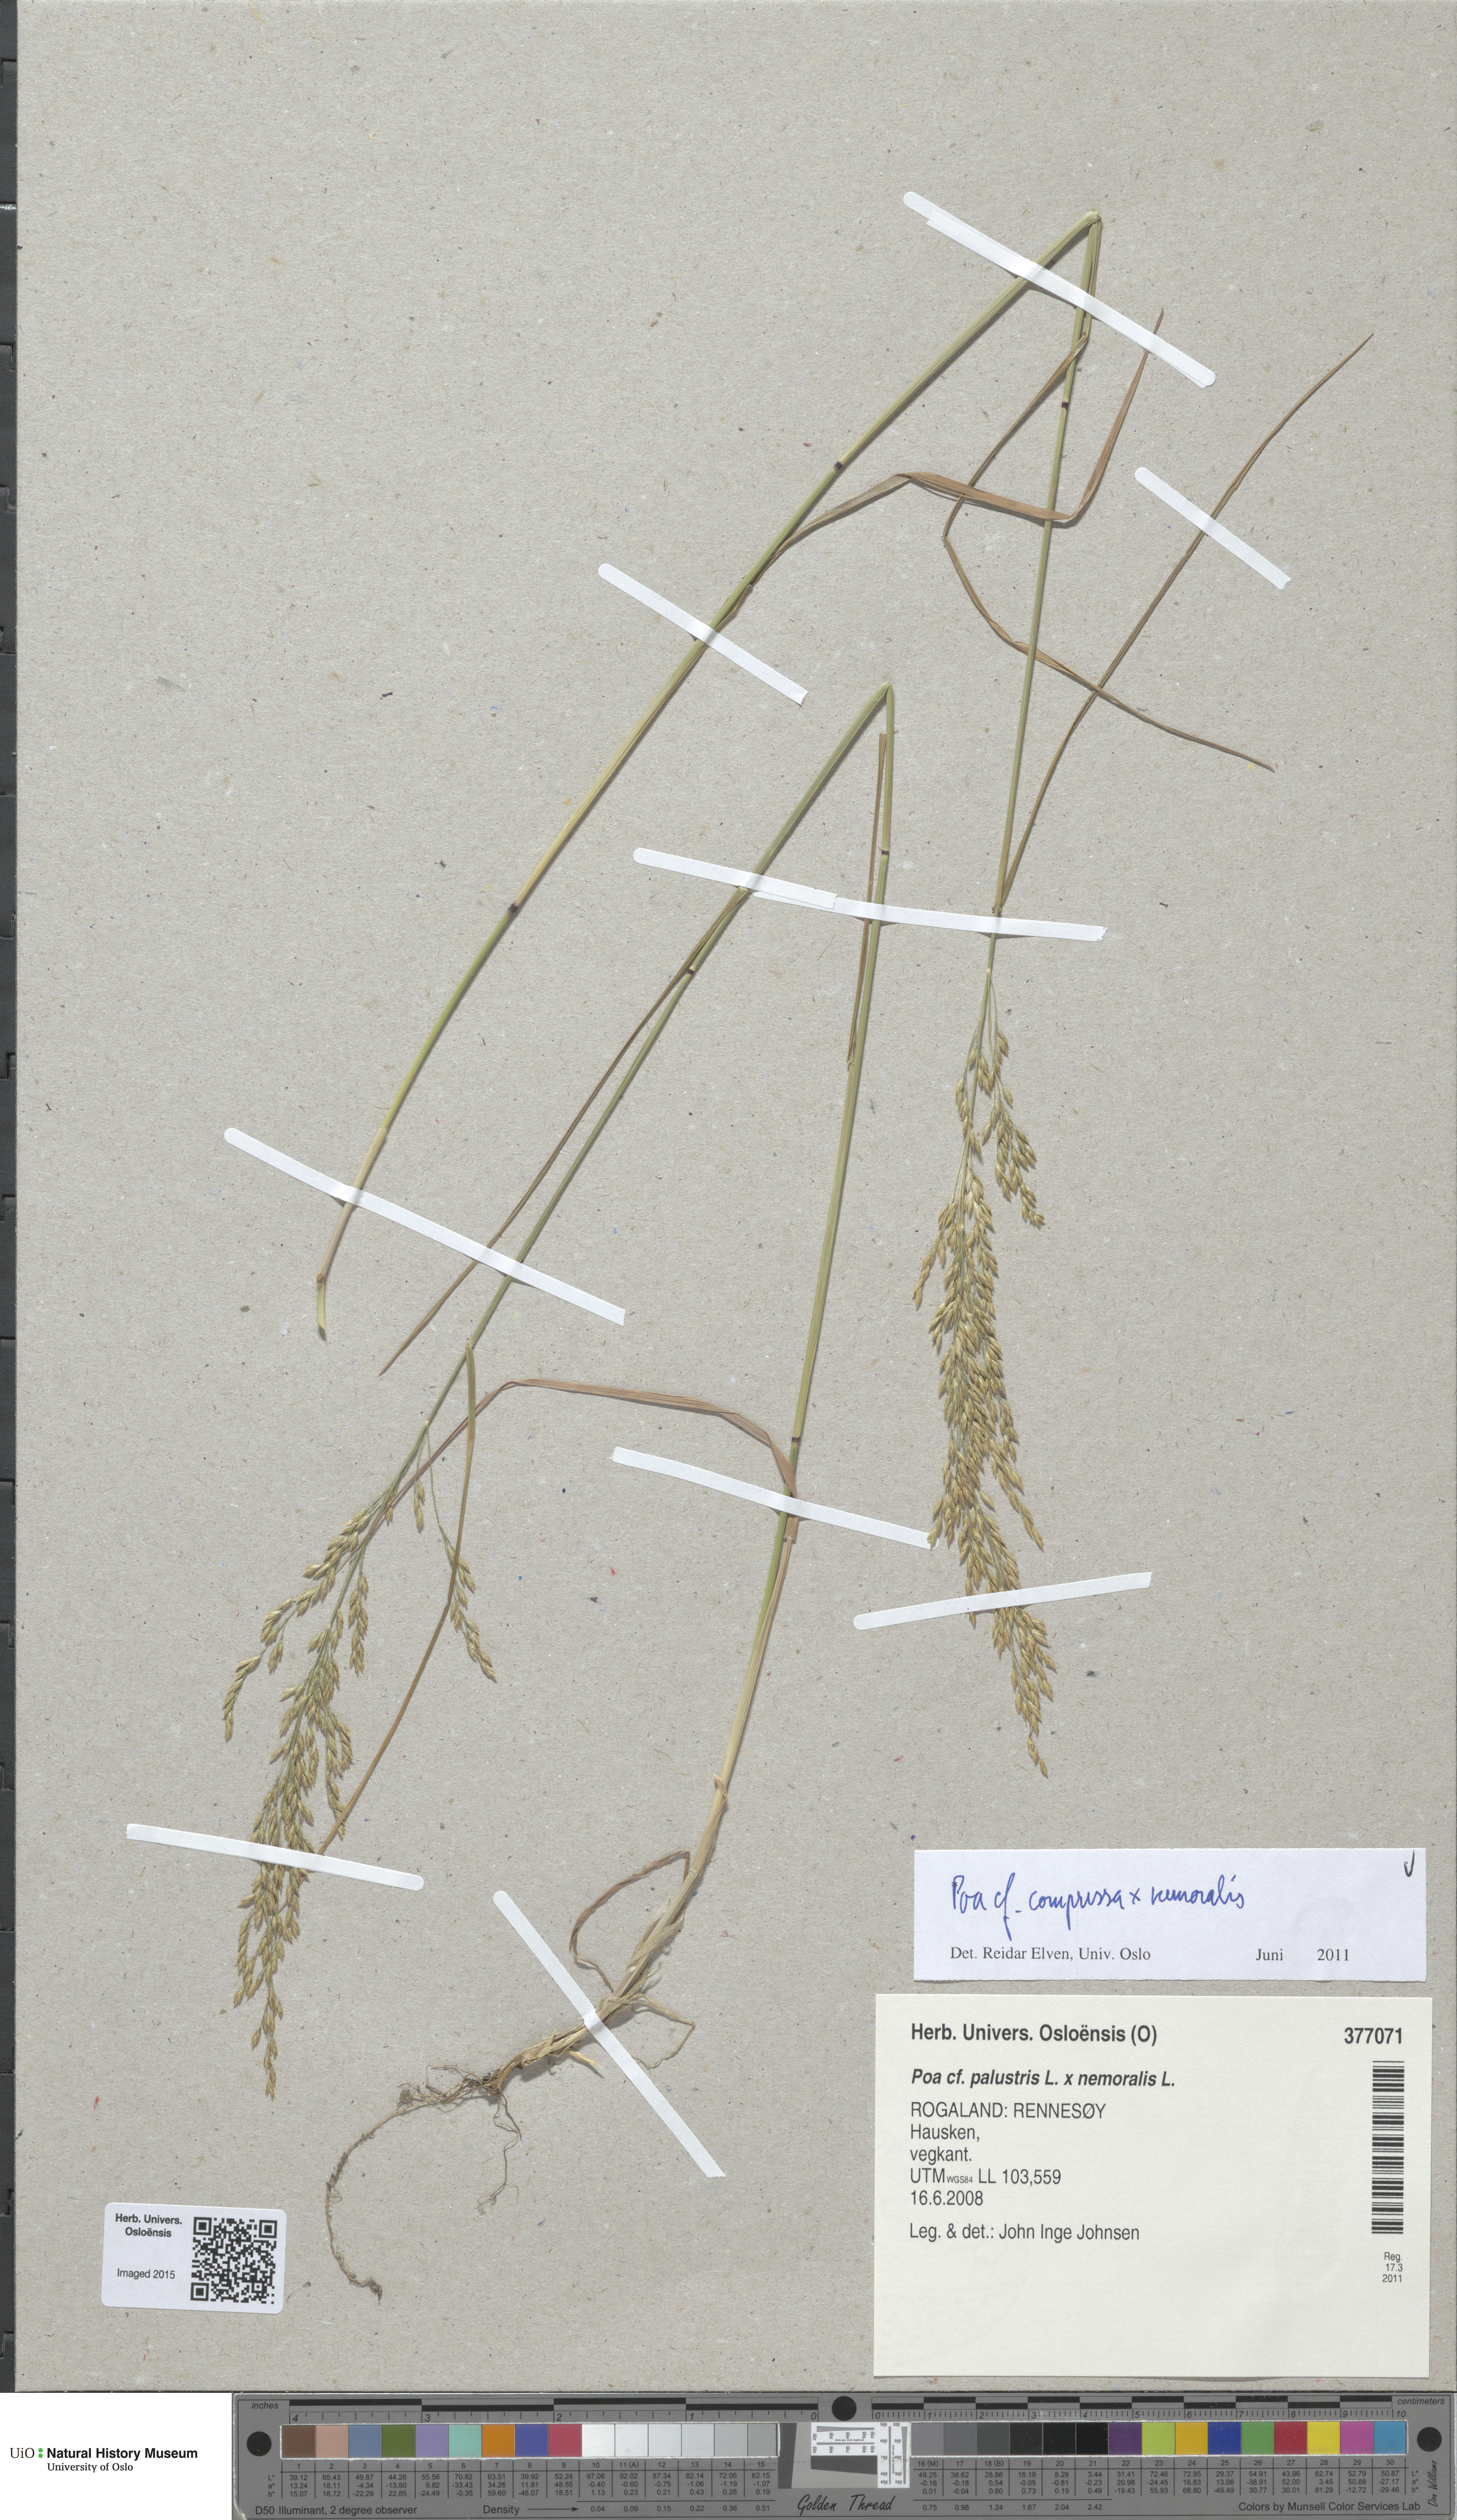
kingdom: Plantae
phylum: Tracheophyta
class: Liliopsida
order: Poales
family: Poaceae
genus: Poa
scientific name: Poa
